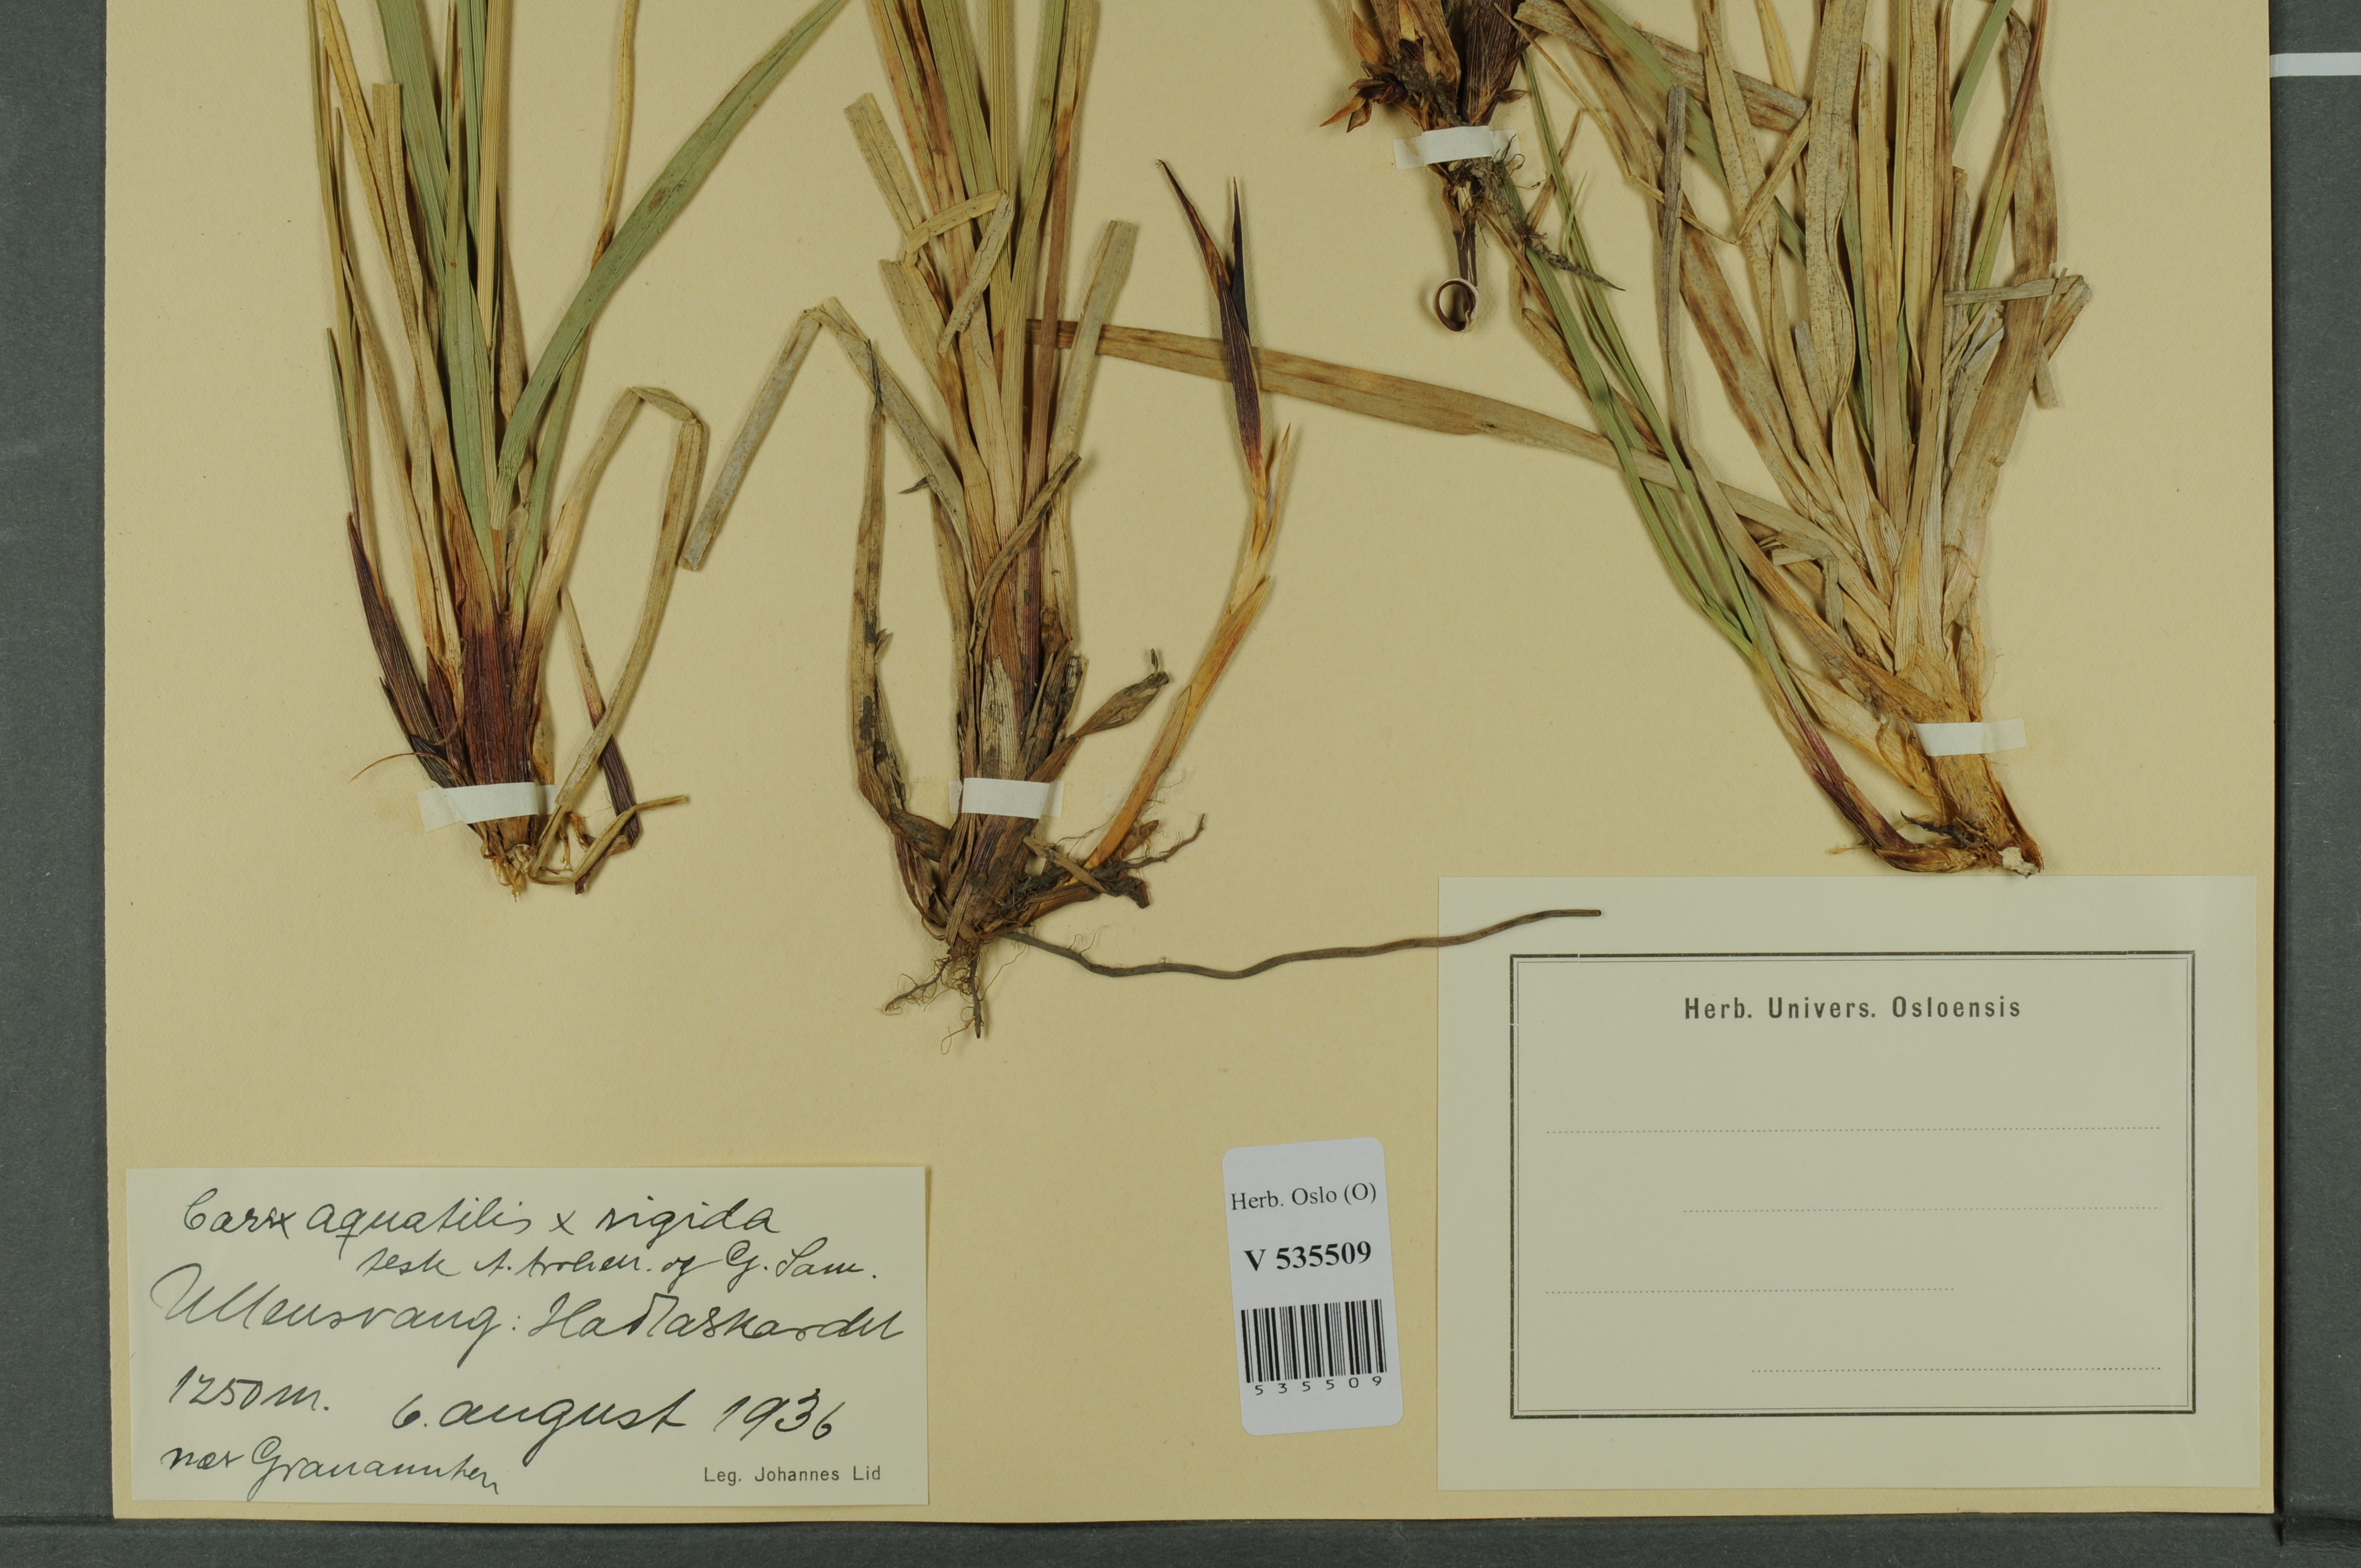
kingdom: Plantae
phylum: Tracheophyta
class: Liliopsida
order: Poales
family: Cyperaceae
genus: Carex
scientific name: Carex
